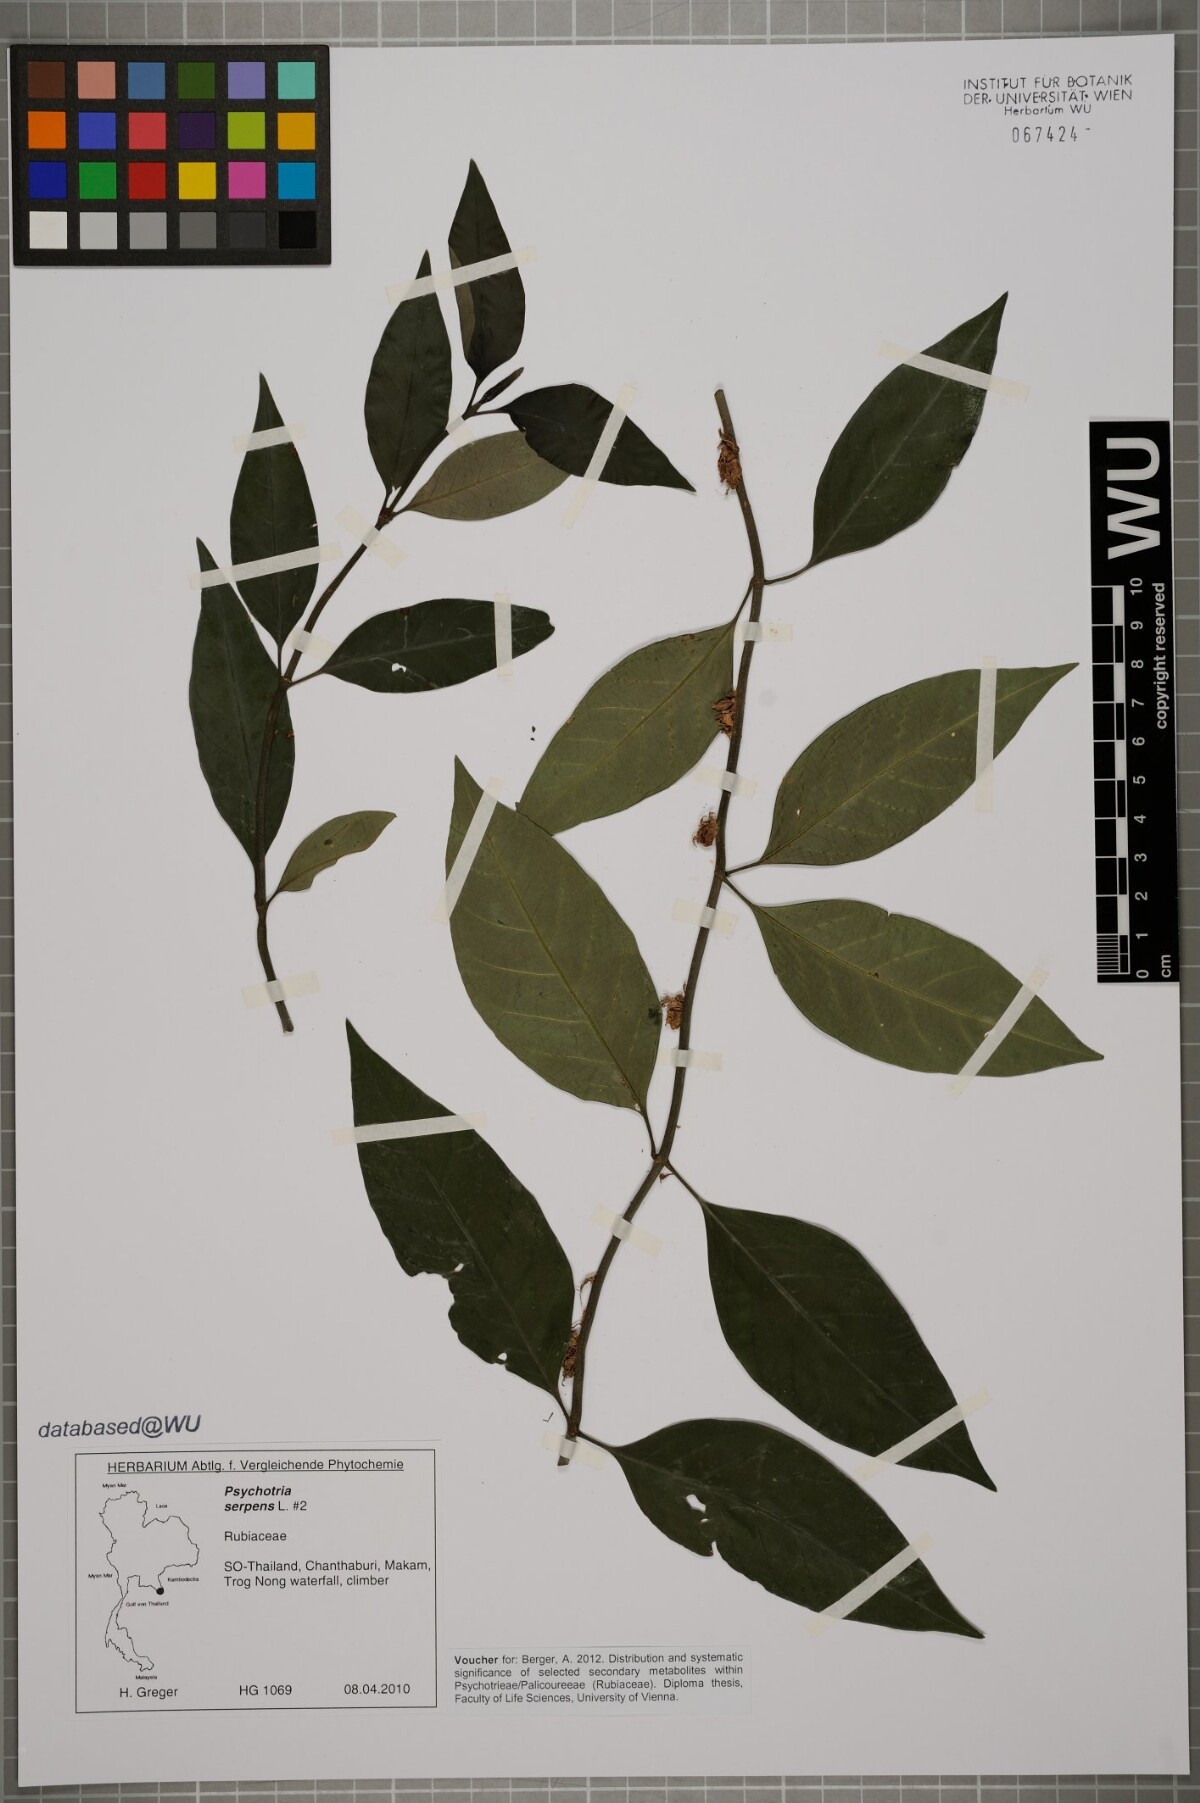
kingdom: Plantae
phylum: Tracheophyta
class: Magnoliopsida
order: Gentianales
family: Rubiaceae
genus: Psychotria
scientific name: Psychotria serpens
